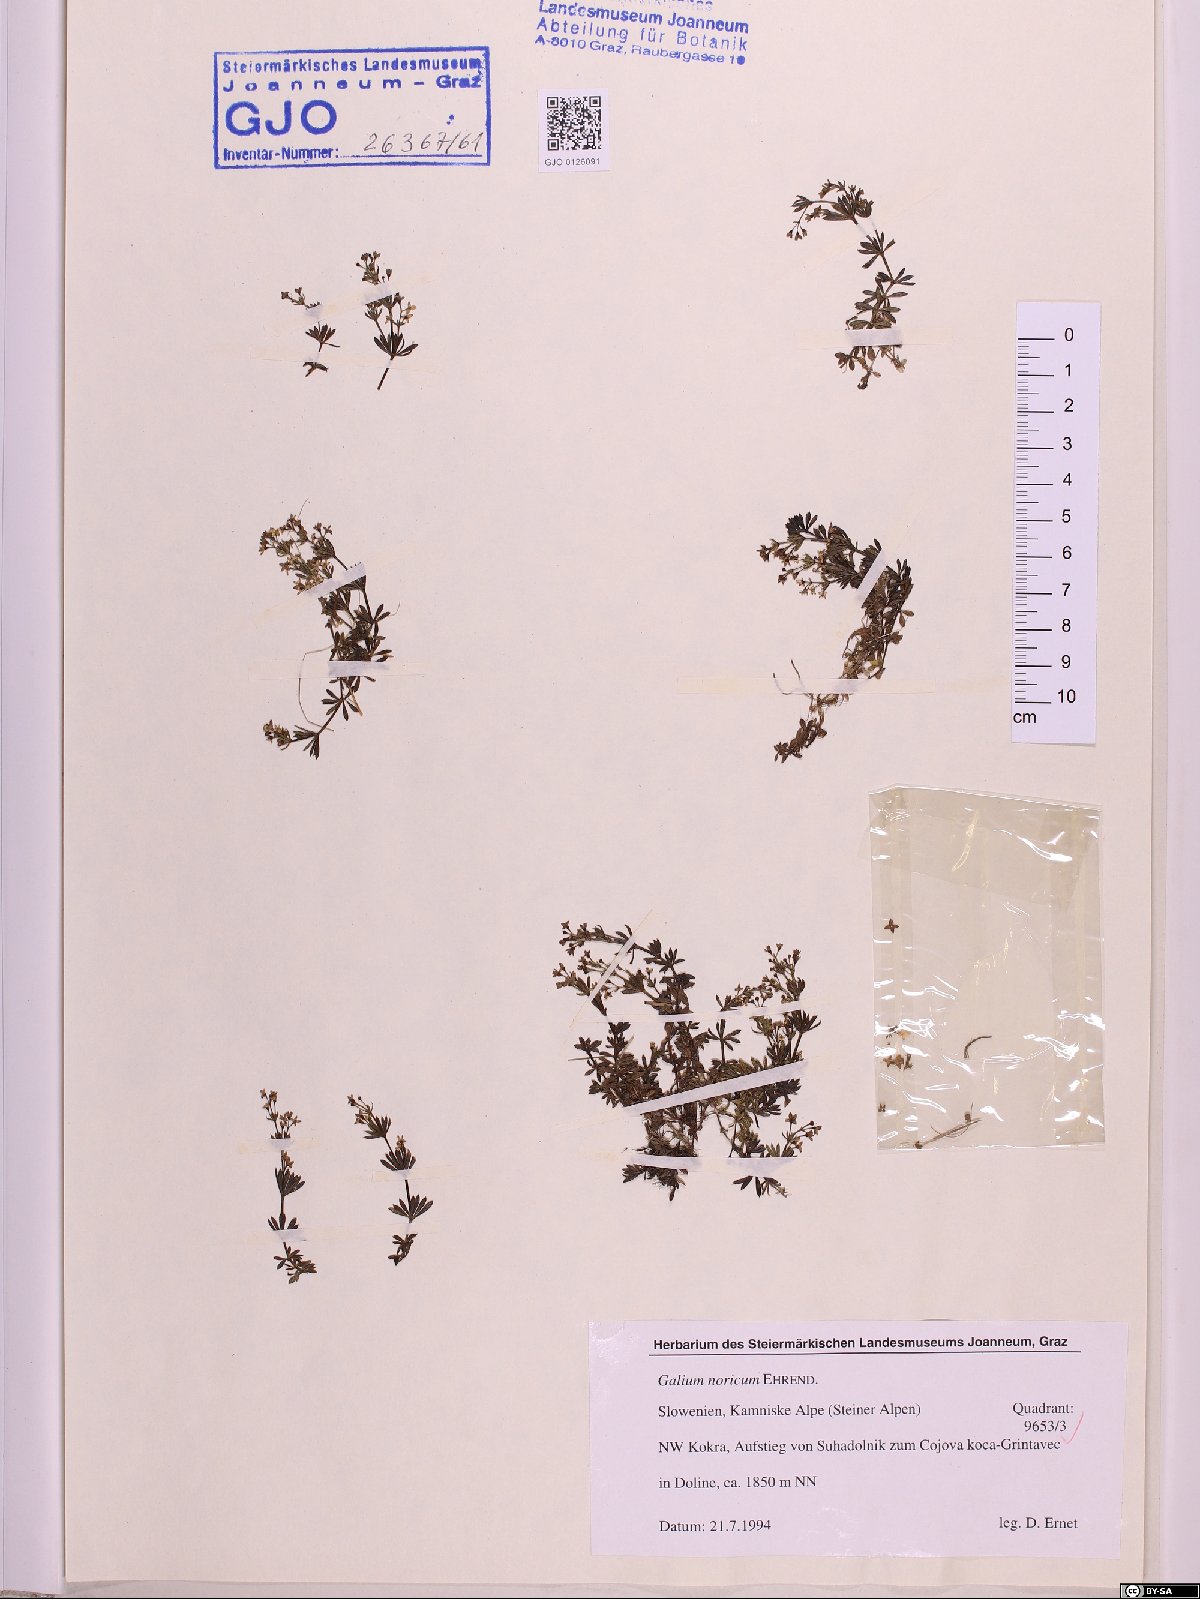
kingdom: Plantae
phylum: Tracheophyta
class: Magnoliopsida
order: Gentianales
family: Rubiaceae
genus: Galium
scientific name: Galium noricum
